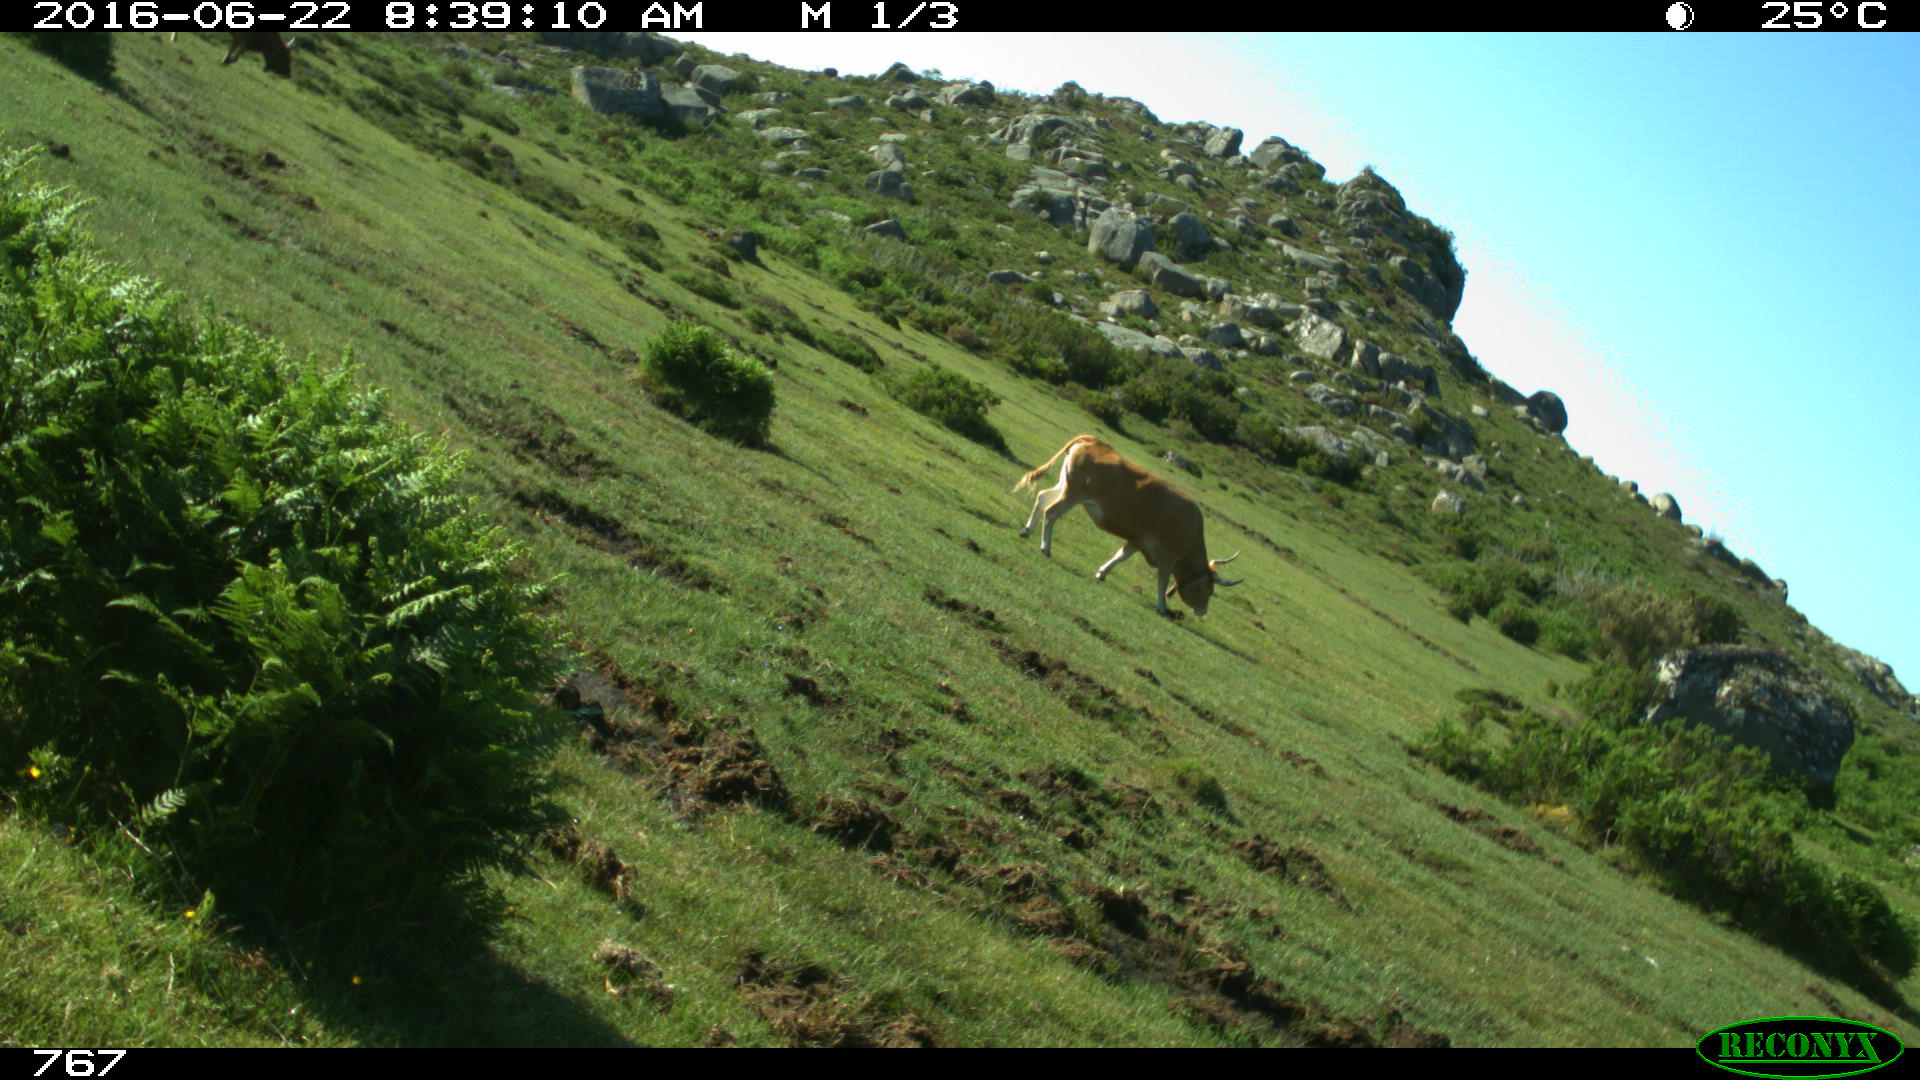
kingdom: Animalia
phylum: Chordata
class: Mammalia
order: Artiodactyla
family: Bovidae
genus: Bos
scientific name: Bos taurus
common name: Domesticated cattle
